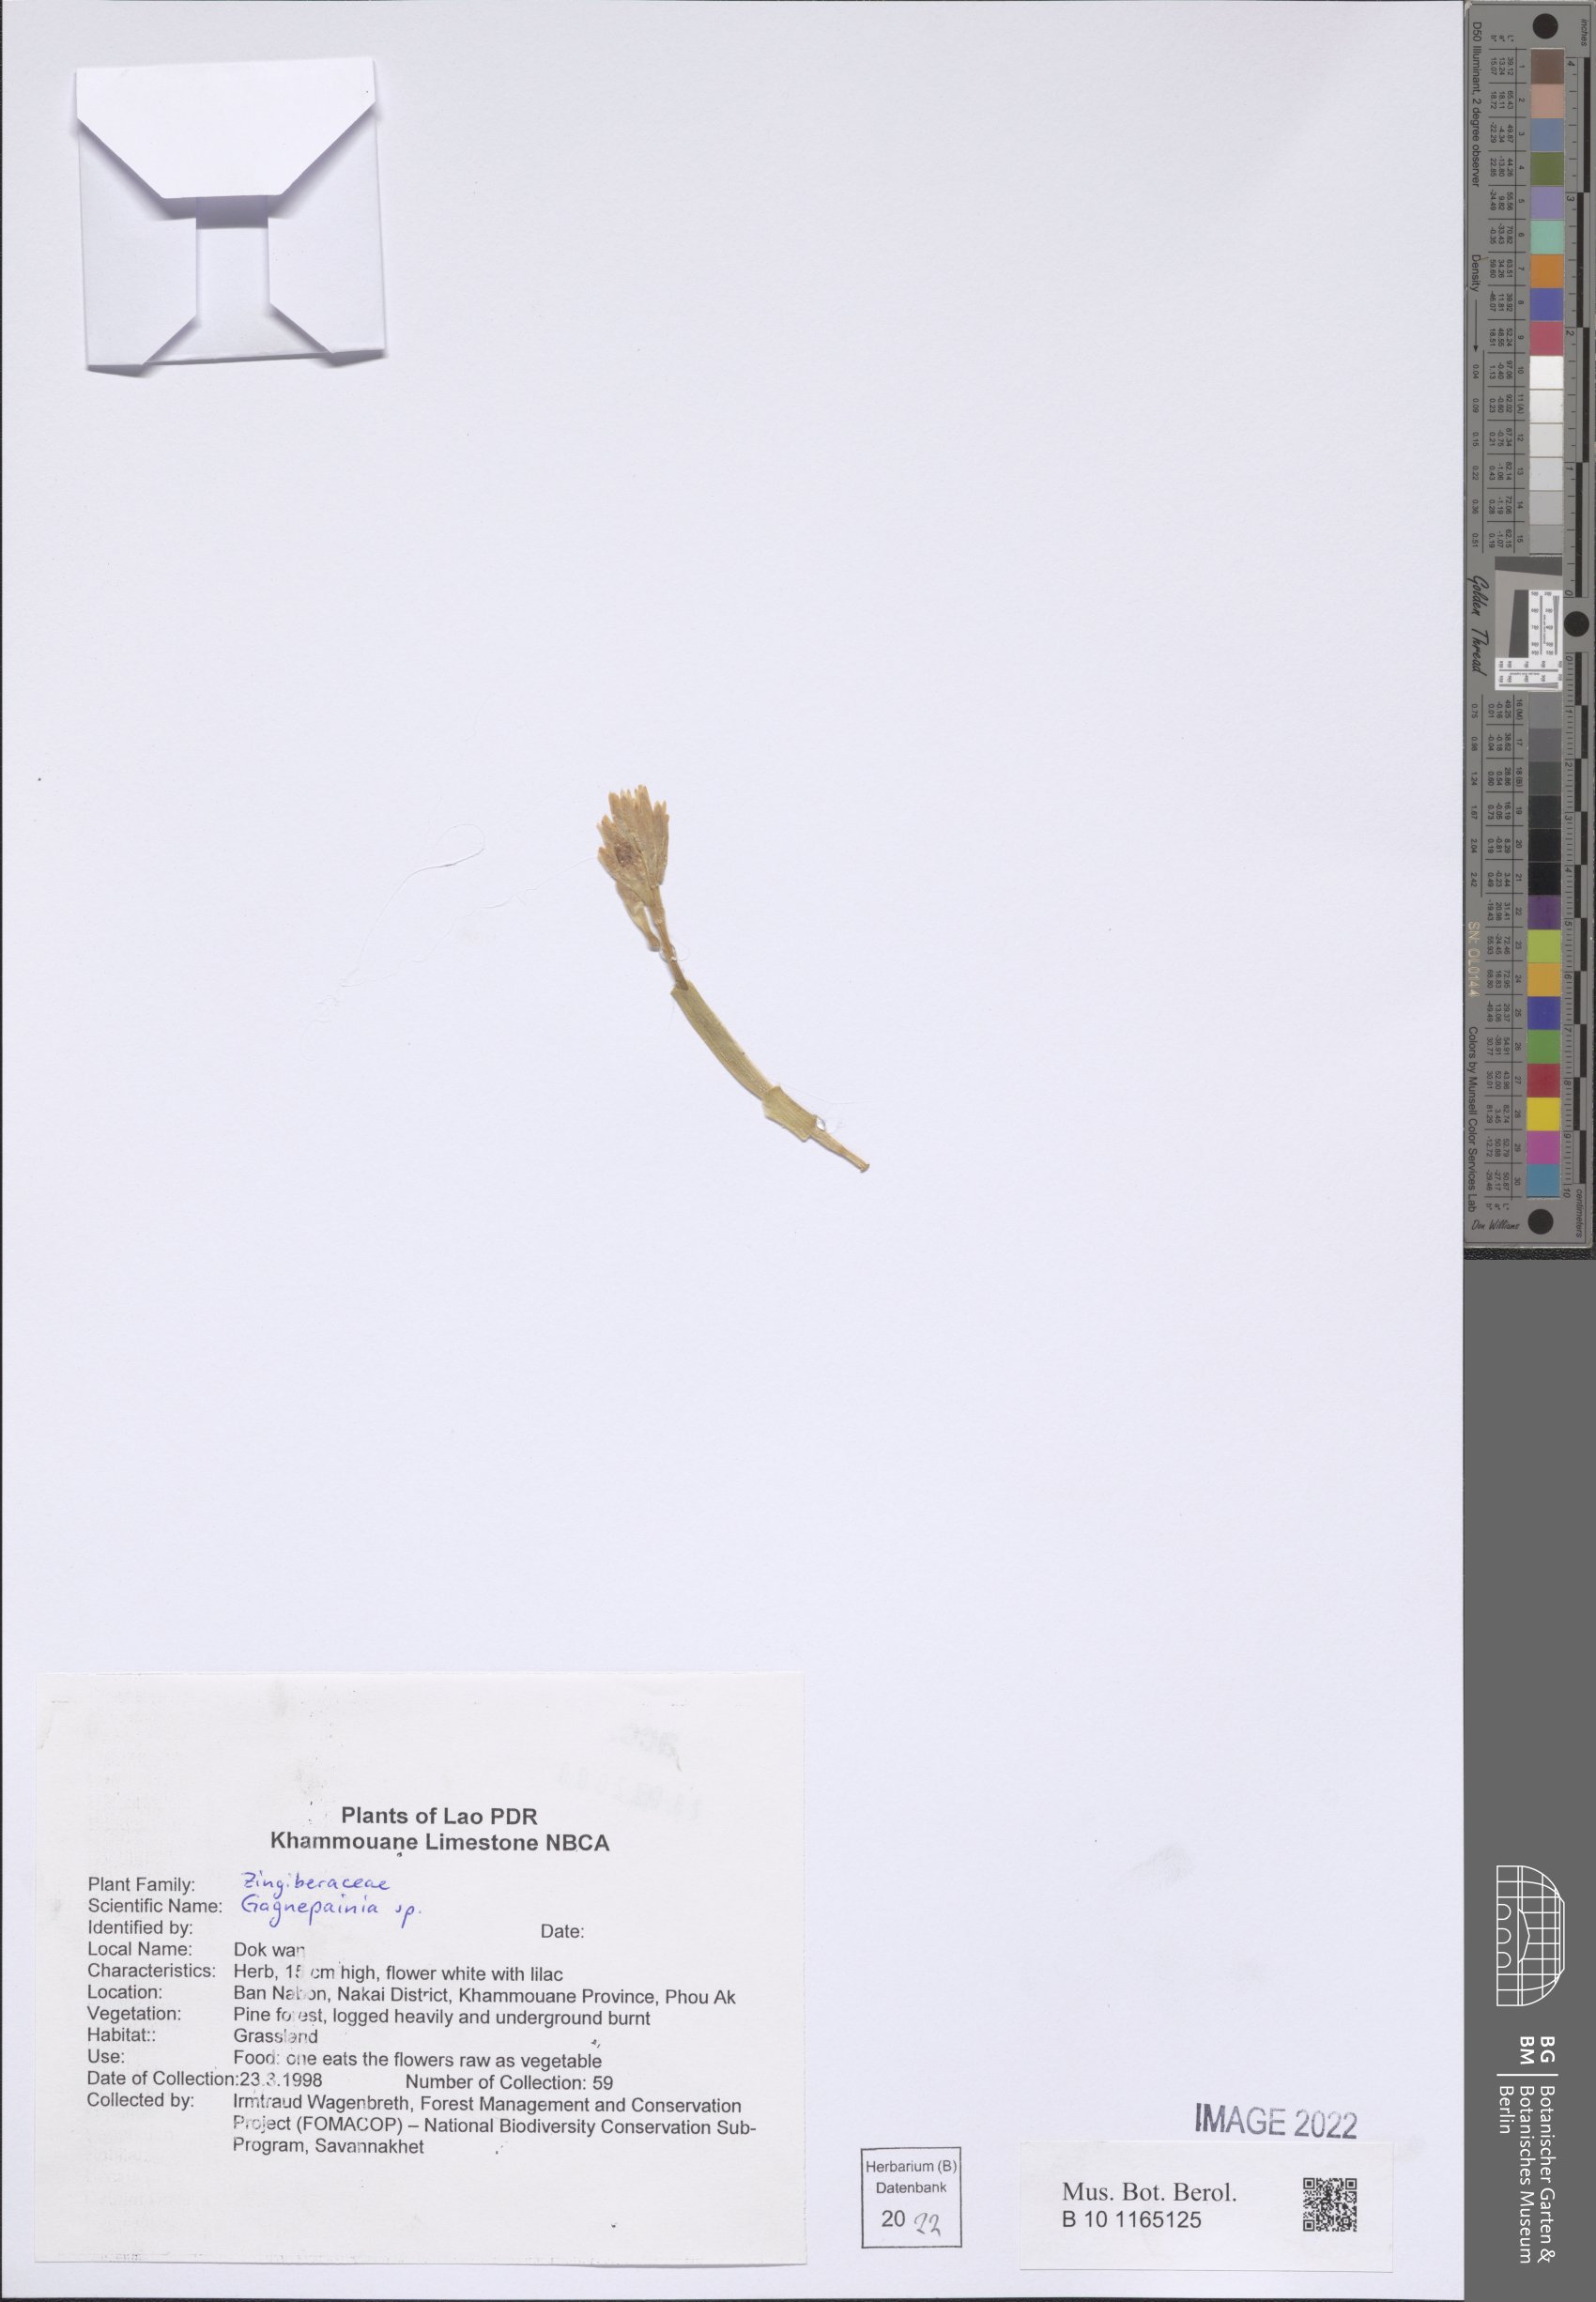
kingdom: Plantae
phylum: Tracheophyta
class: Liliopsida
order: Zingiberales
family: Zingiberaceae
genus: Gagnepainia
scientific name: Gagnepainia
